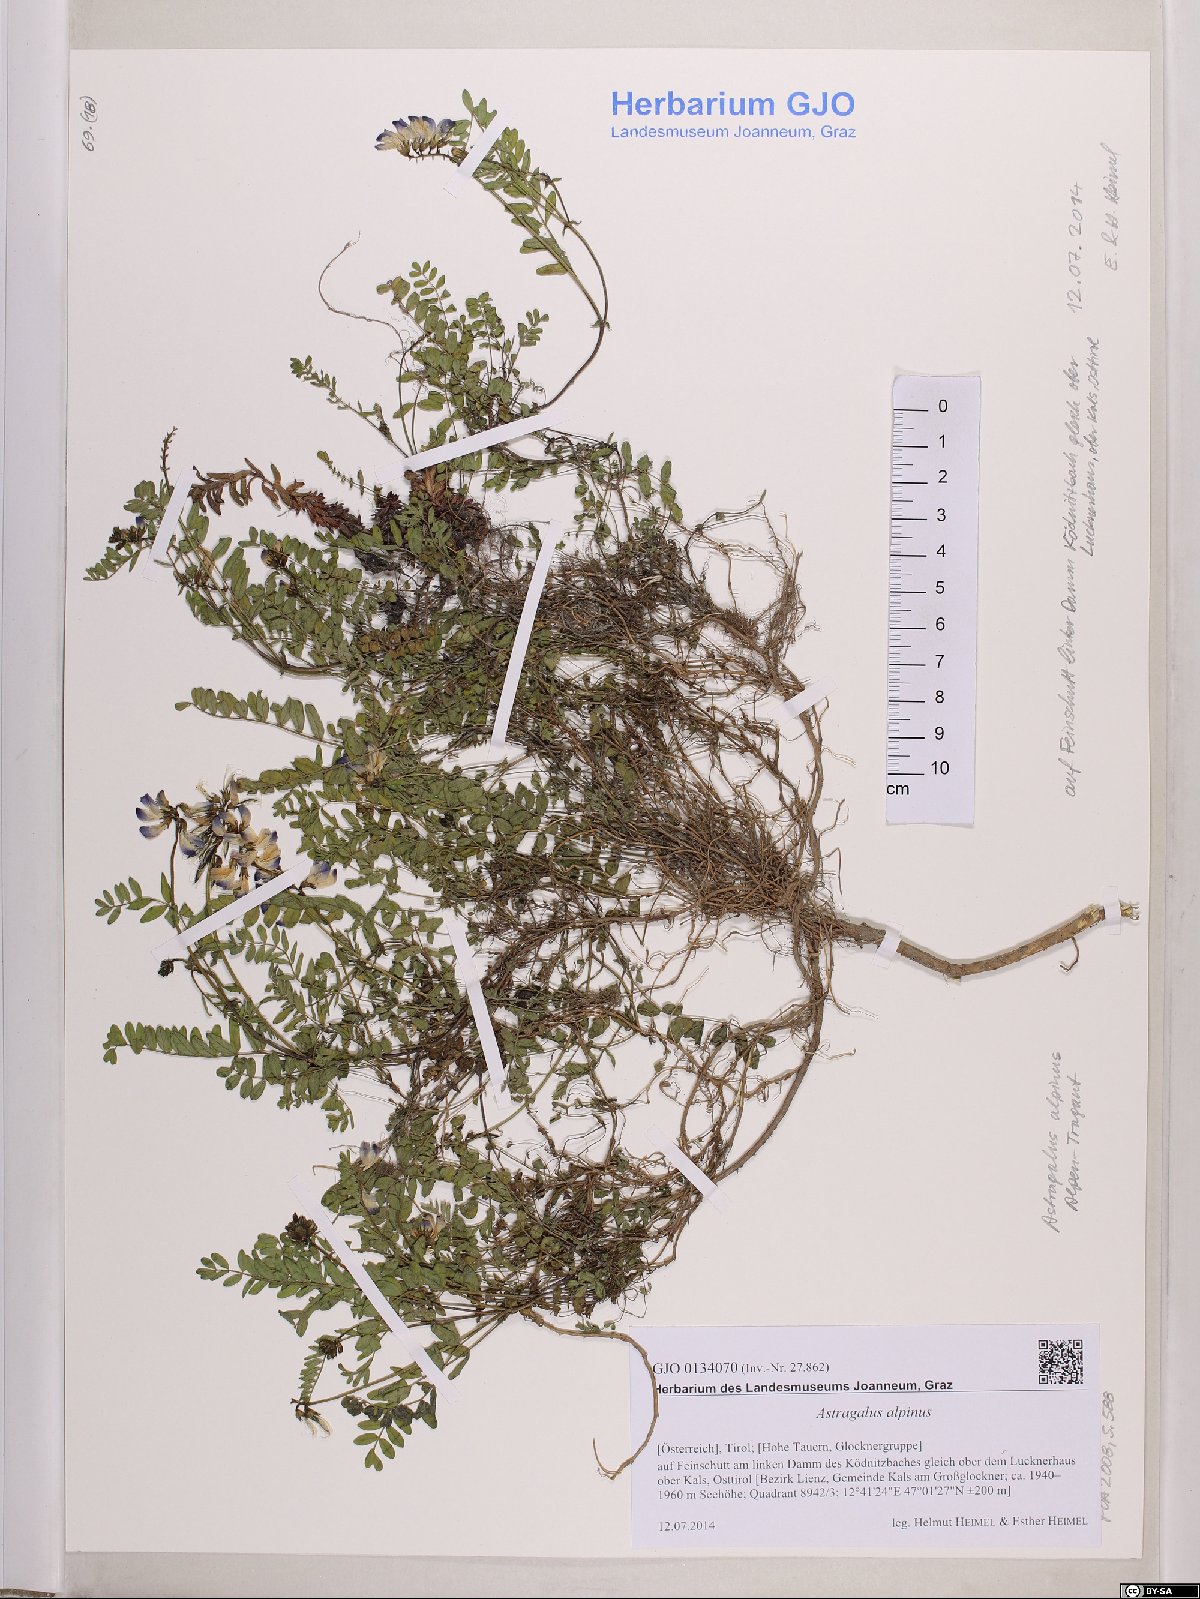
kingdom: Plantae
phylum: Tracheophyta
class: Magnoliopsida
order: Fabales
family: Fabaceae
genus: Astragalus
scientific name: Astragalus alpinus
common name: Alpine milk-vetch
